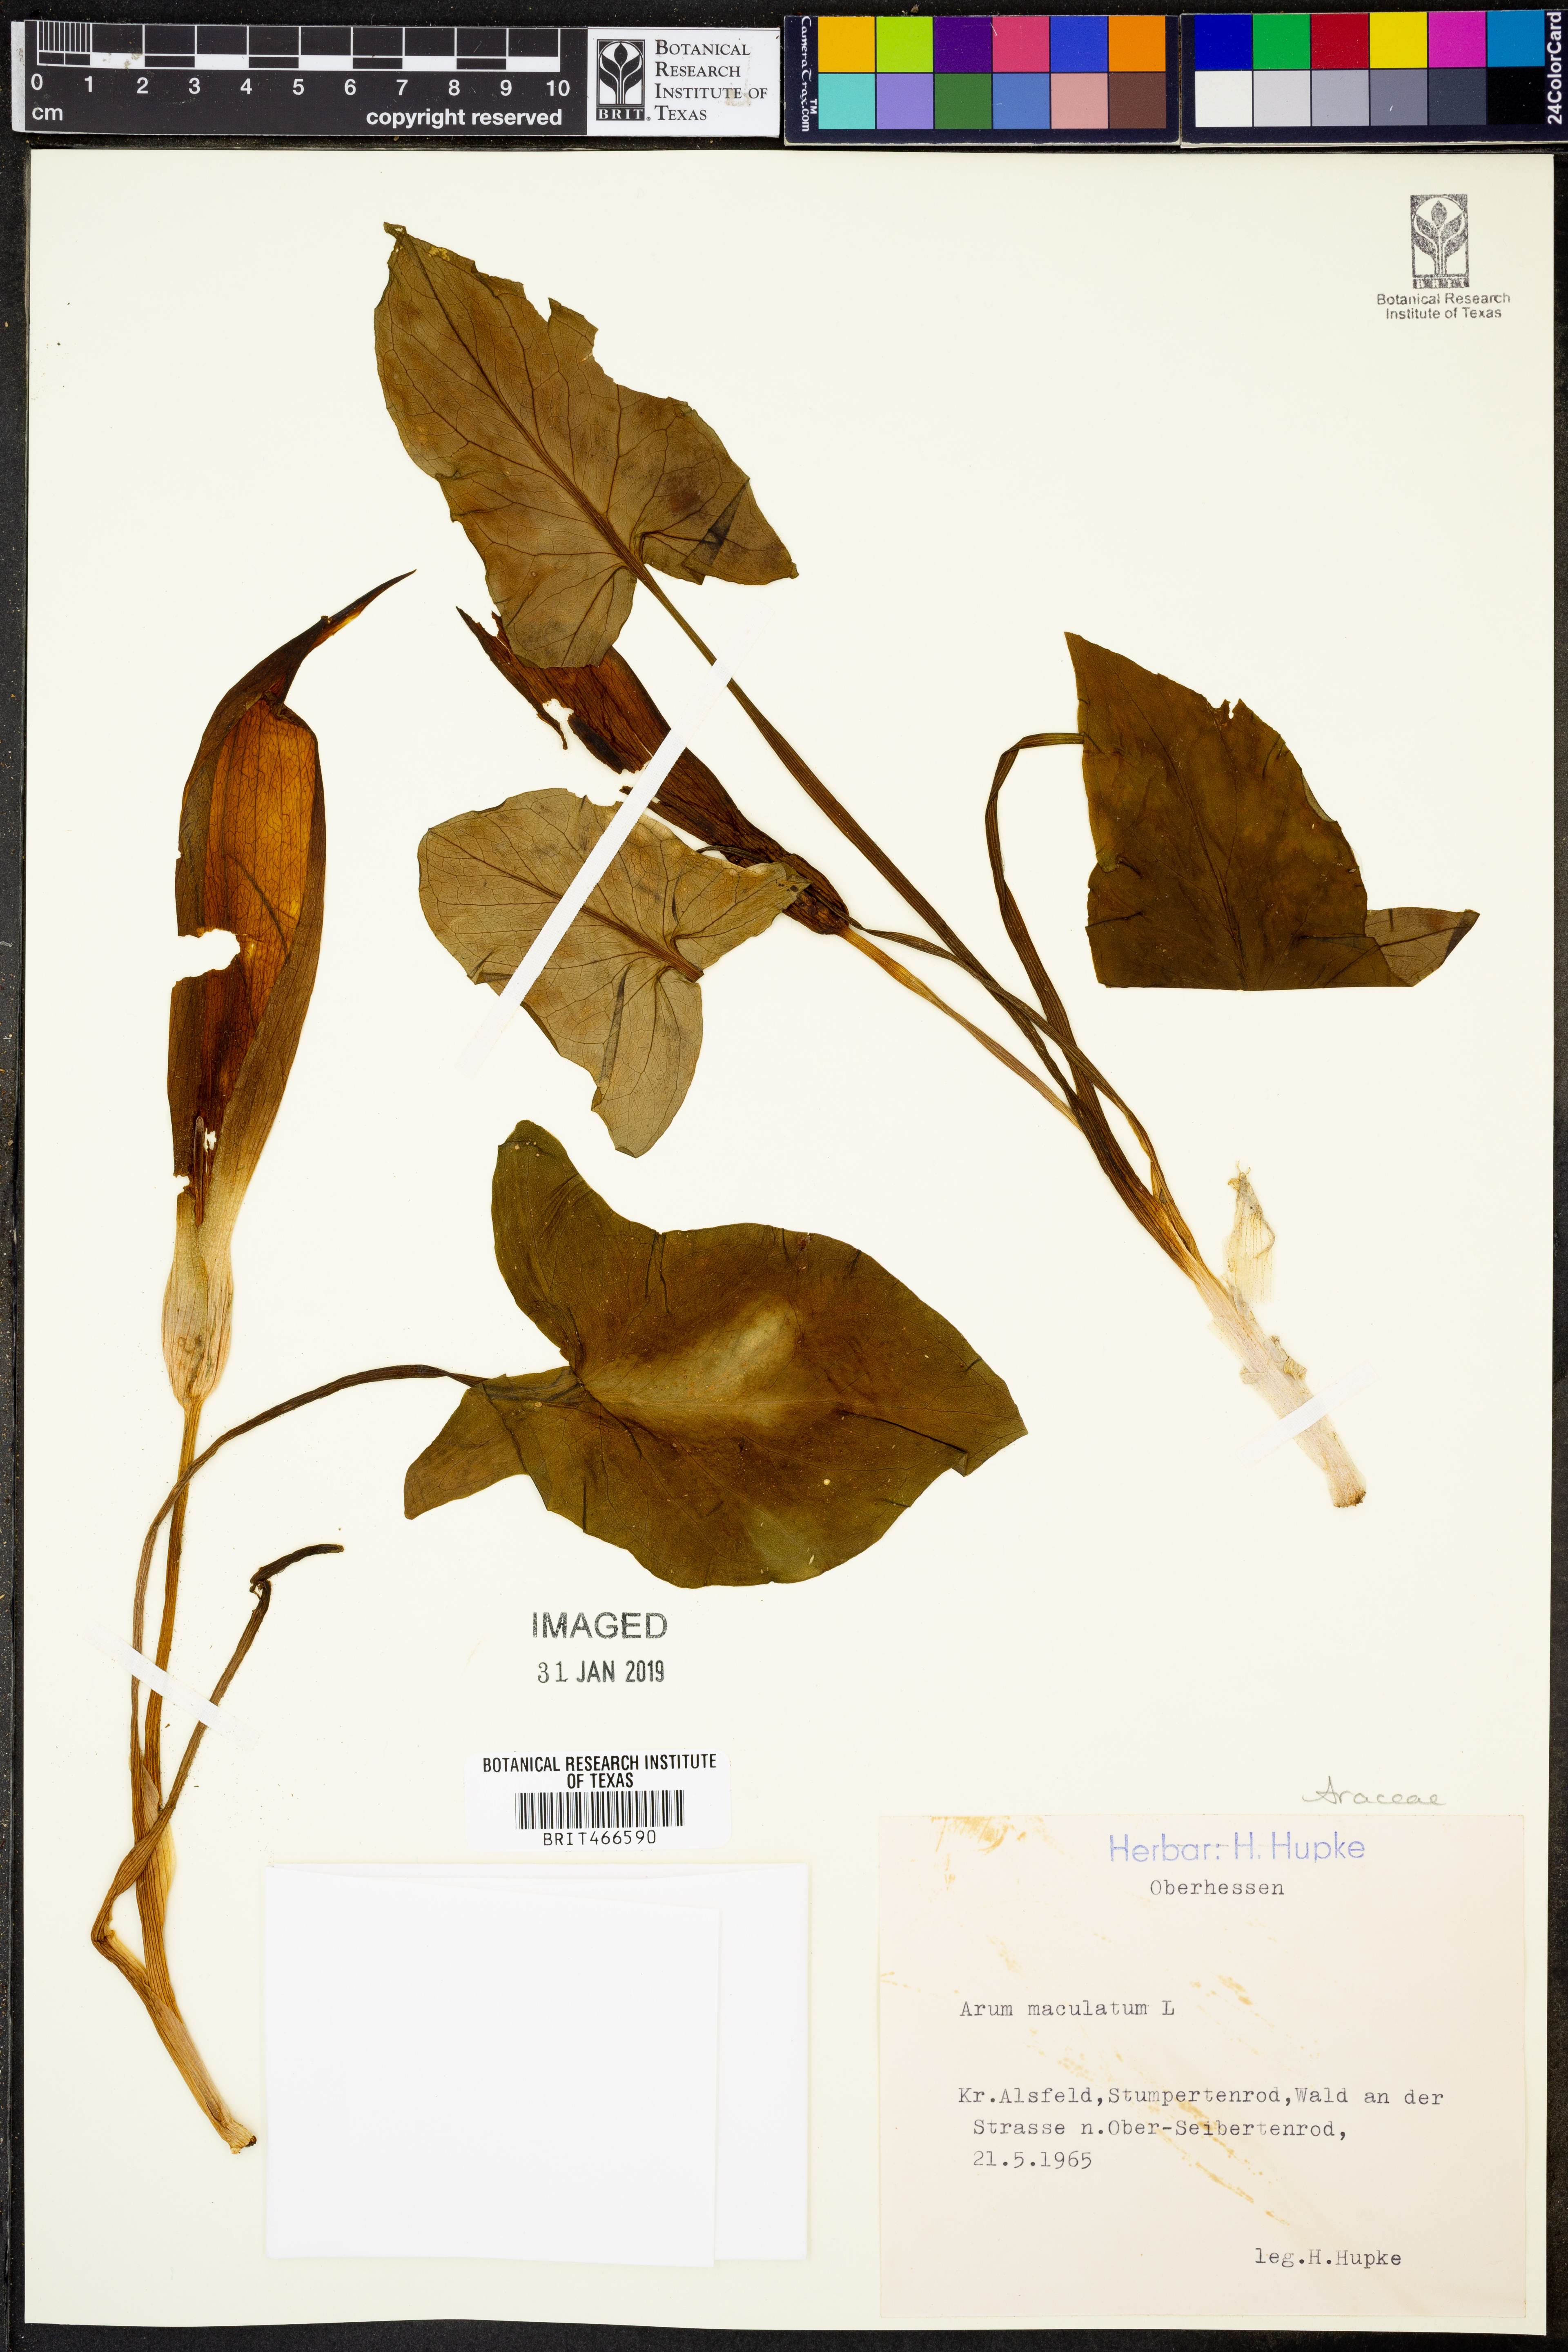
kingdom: Plantae
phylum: Tracheophyta
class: Liliopsida
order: Alismatales
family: Araceae
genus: Arum
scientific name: Arum maculatum
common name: Lords-and-ladies
